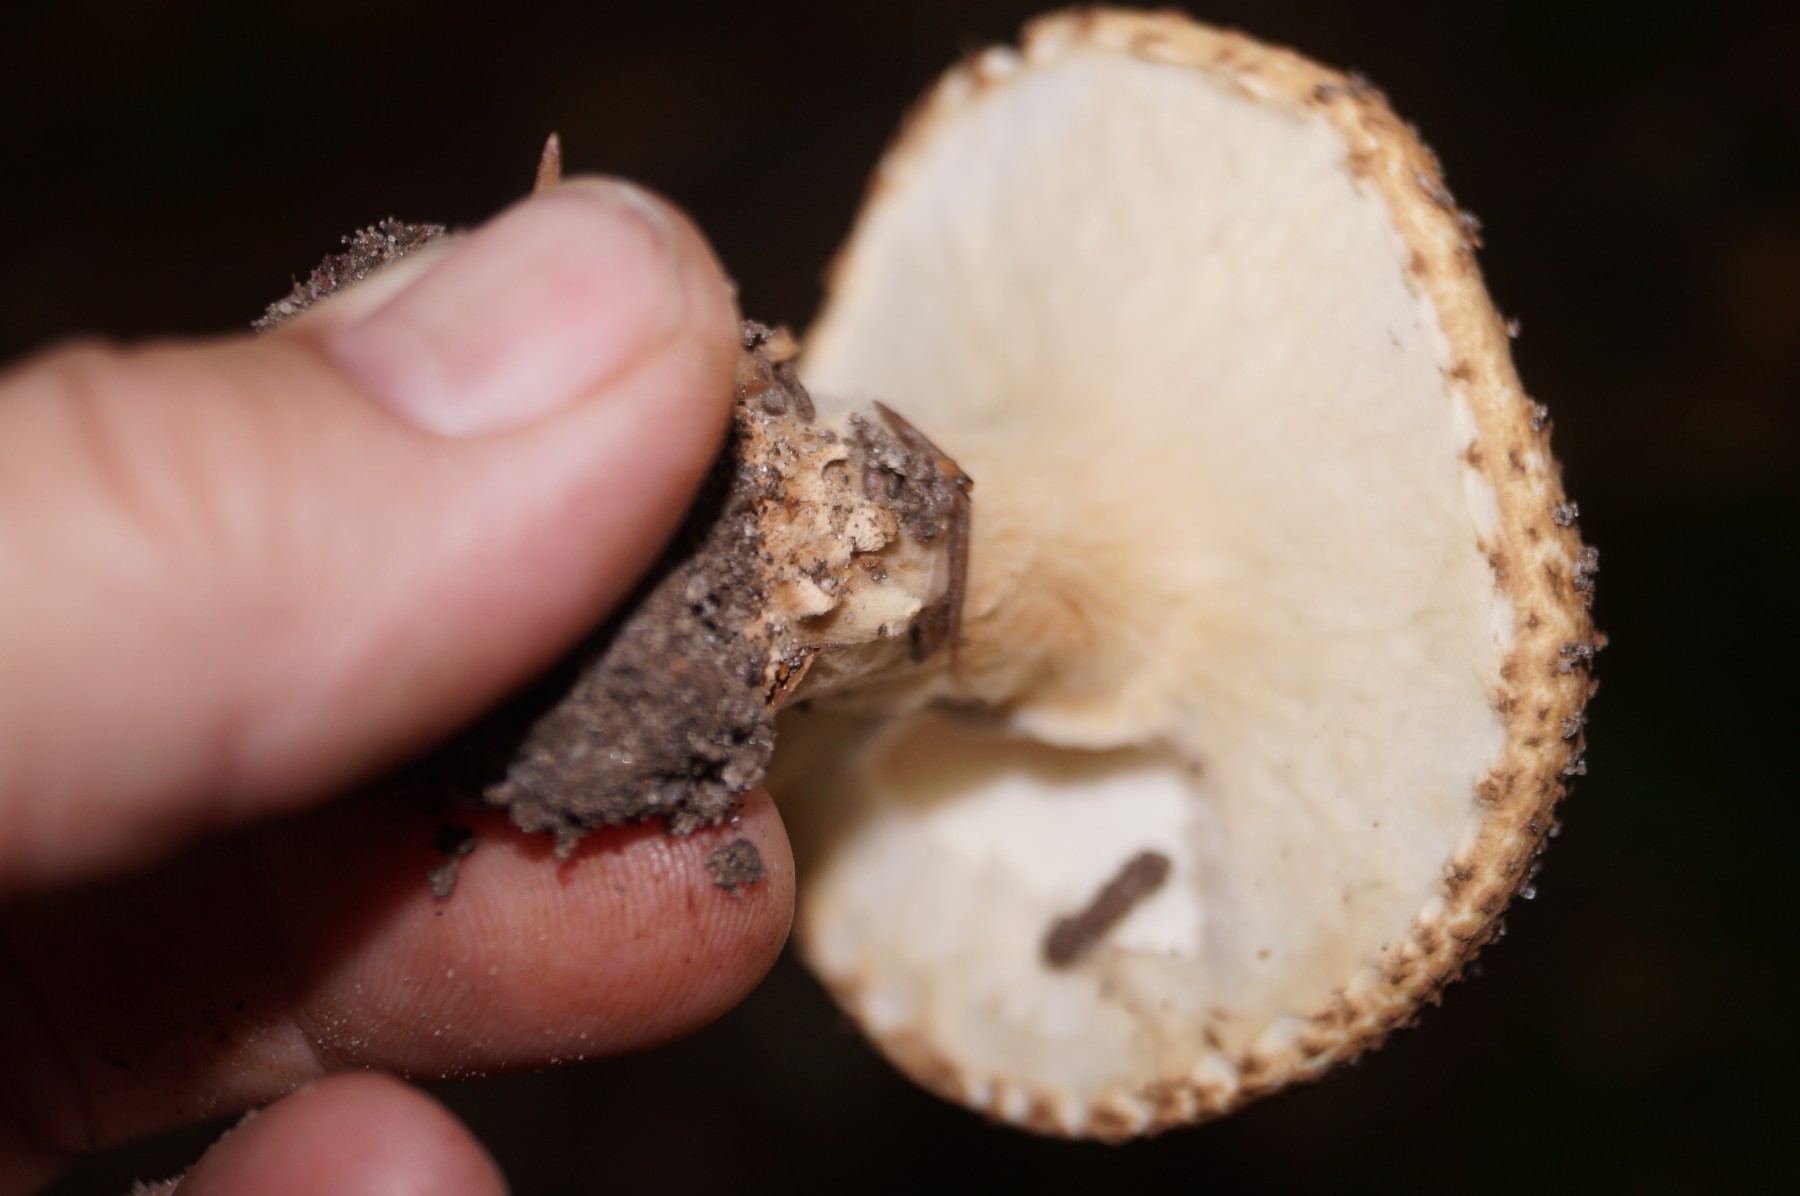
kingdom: Fungi
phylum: Basidiomycota
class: Agaricomycetes
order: Agaricales
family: Agaricaceae
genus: Echinoderma
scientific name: Echinoderma asperum
